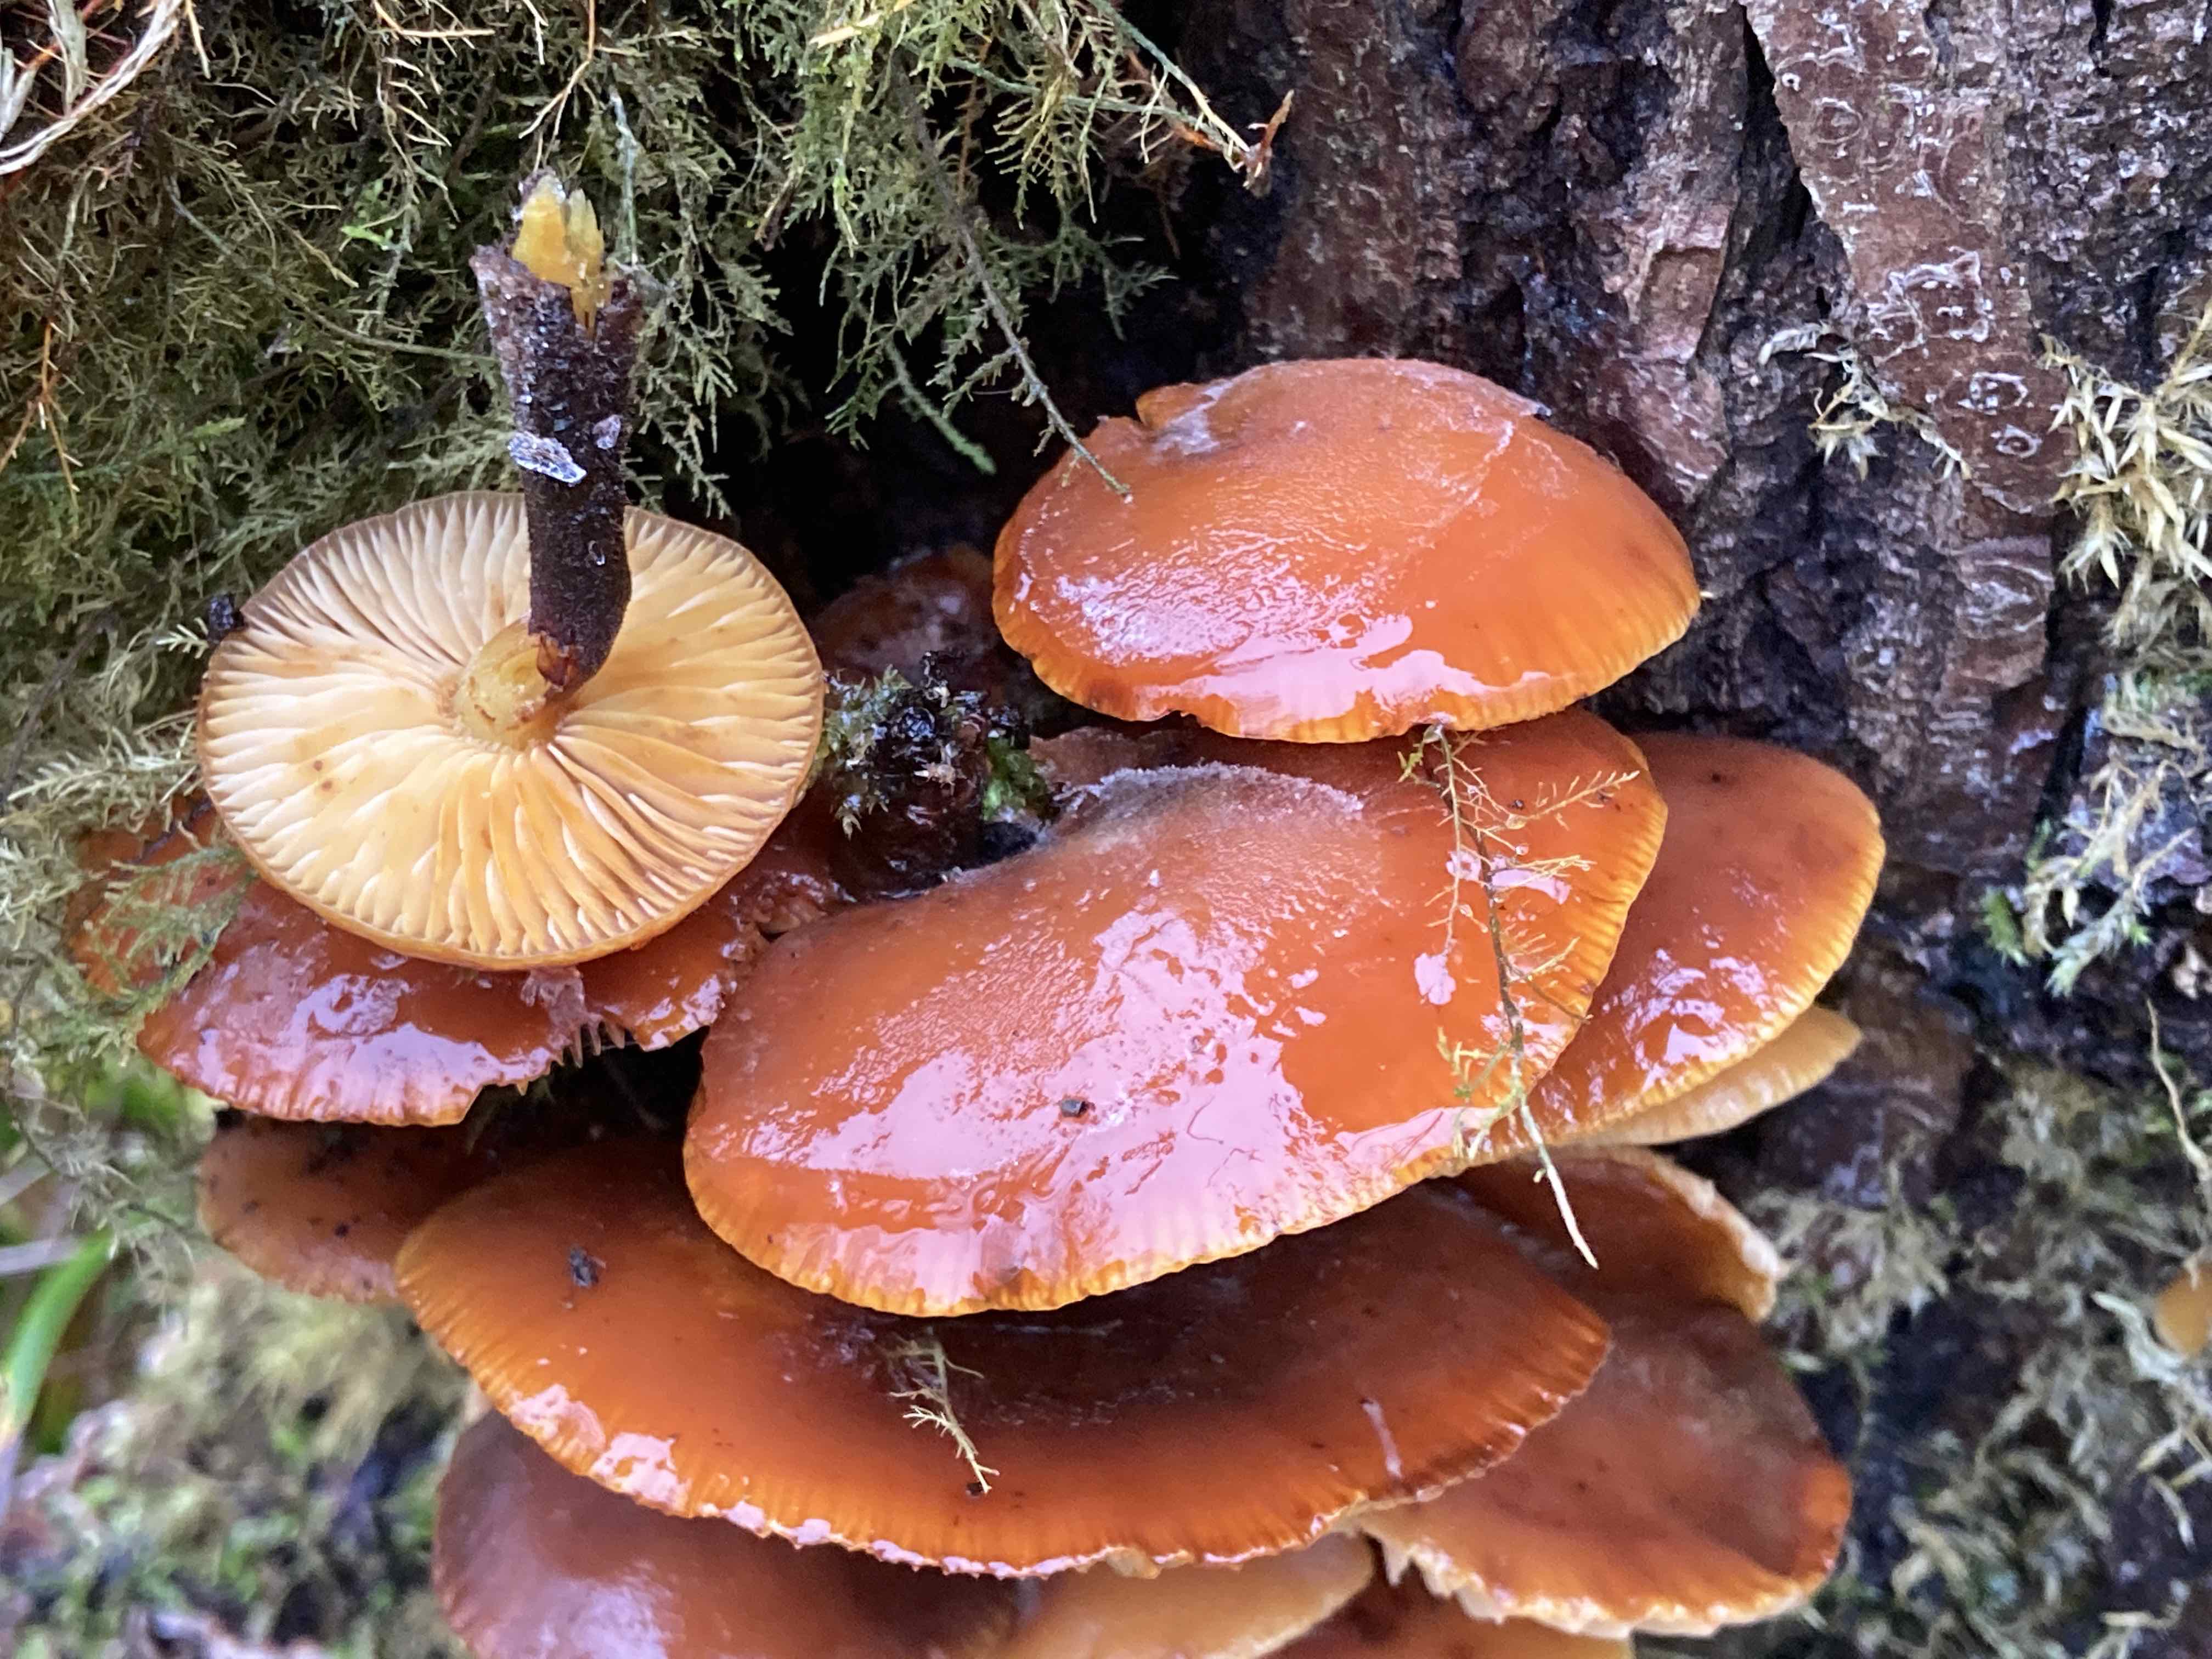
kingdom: Fungi
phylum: Basidiomycota
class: Agaricomycetes
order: Agaricales
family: Physalacriaceae
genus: Flammulina
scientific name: Flammulina
